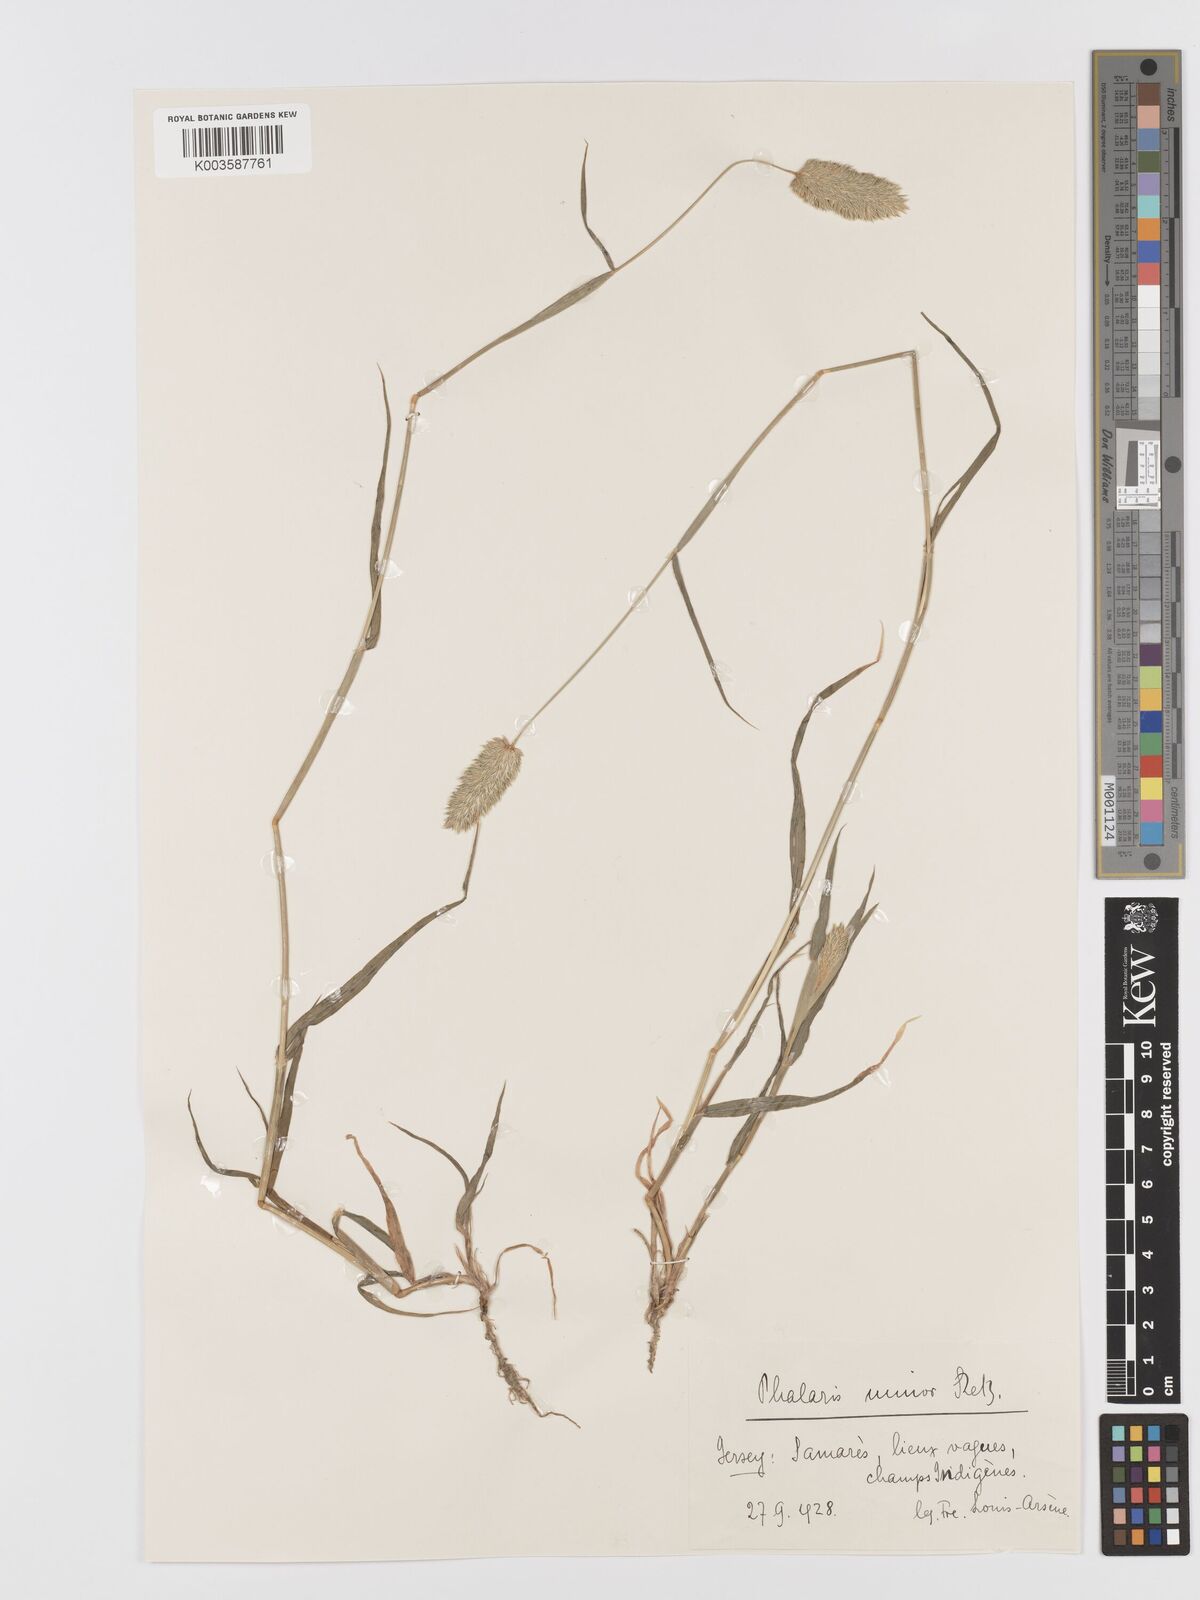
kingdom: Plantae
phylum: Tracheophyta
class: Liliopsida
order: Poales
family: Poaceae
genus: Phalaris
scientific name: Phalaris minor
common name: Littleseed canarygrass
